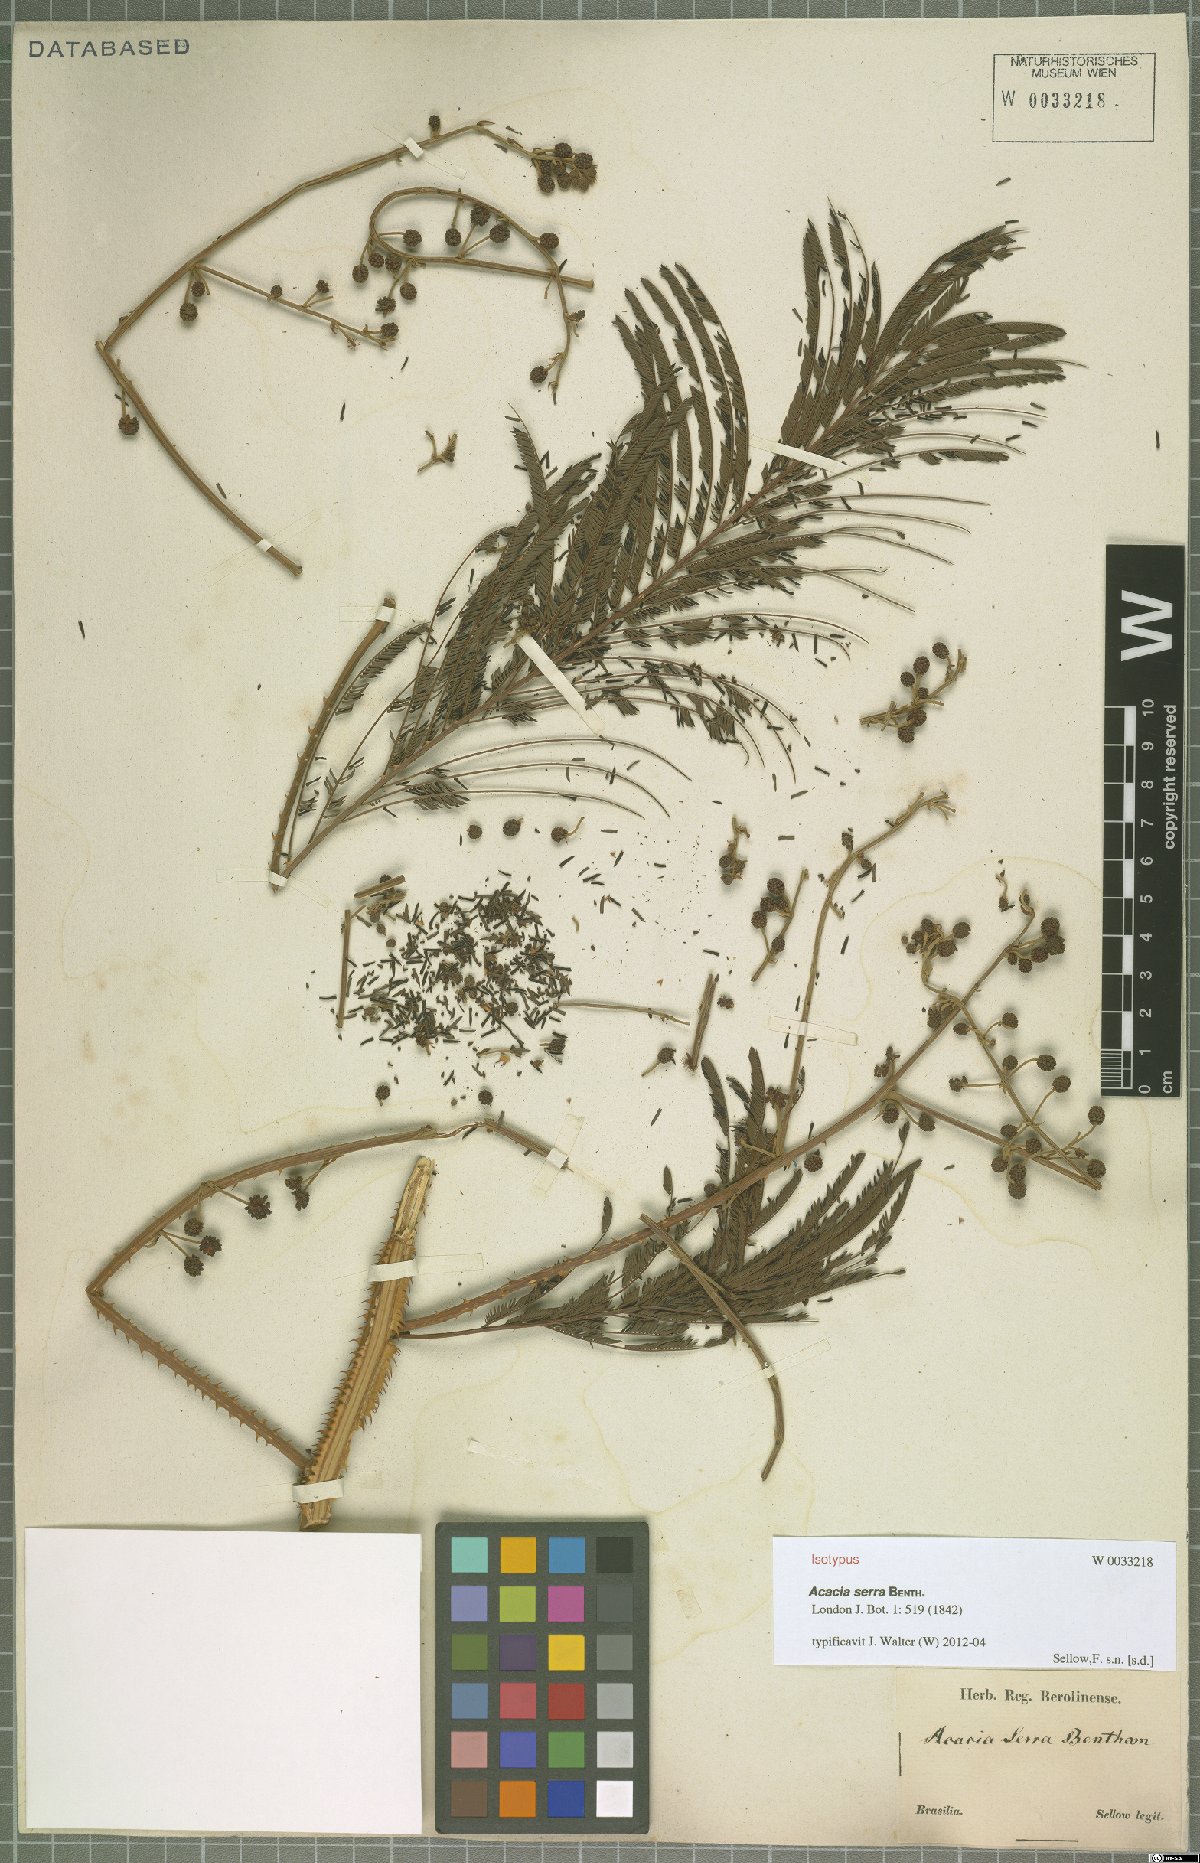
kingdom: Plantae
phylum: Tracheophyta
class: Magnoliopsida
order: Fabales
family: Fabaceae
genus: Senegalia
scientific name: Senegalia serra
